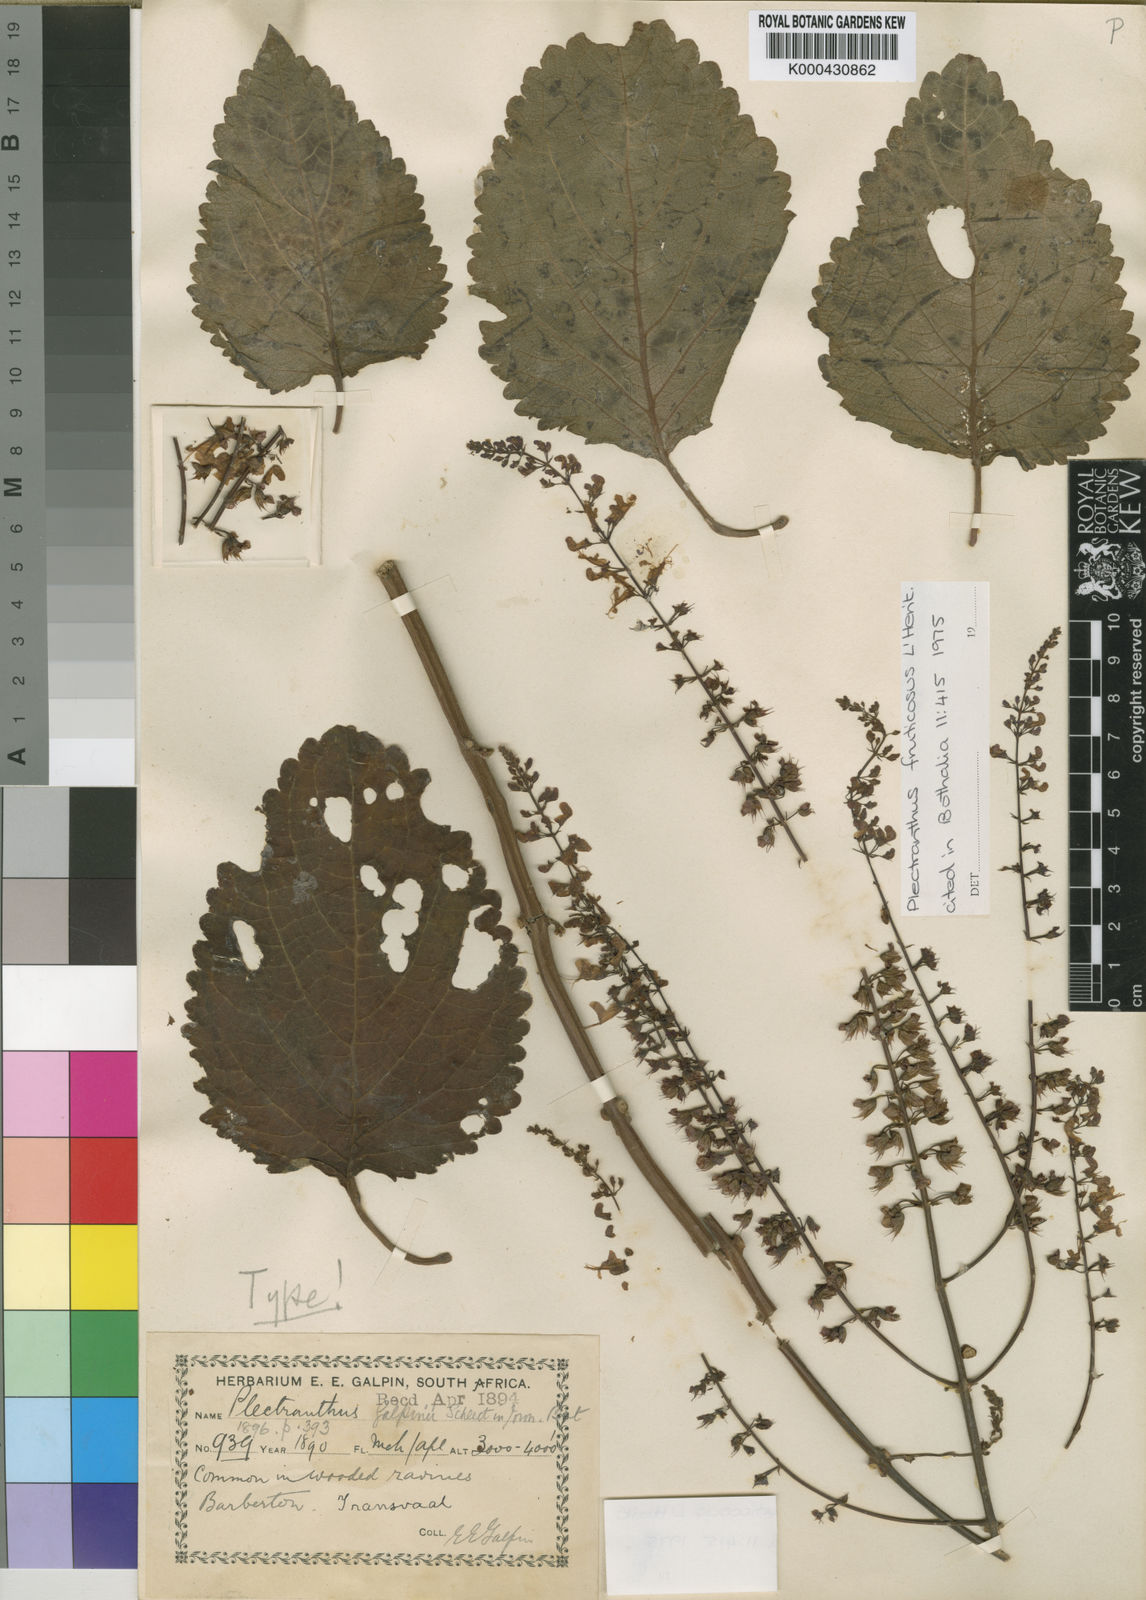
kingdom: Plantae
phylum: Tracheophyta
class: Magnoliopsida
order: Lamiales
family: Lamiaceae
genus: Plectranthus
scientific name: Plectranthus
